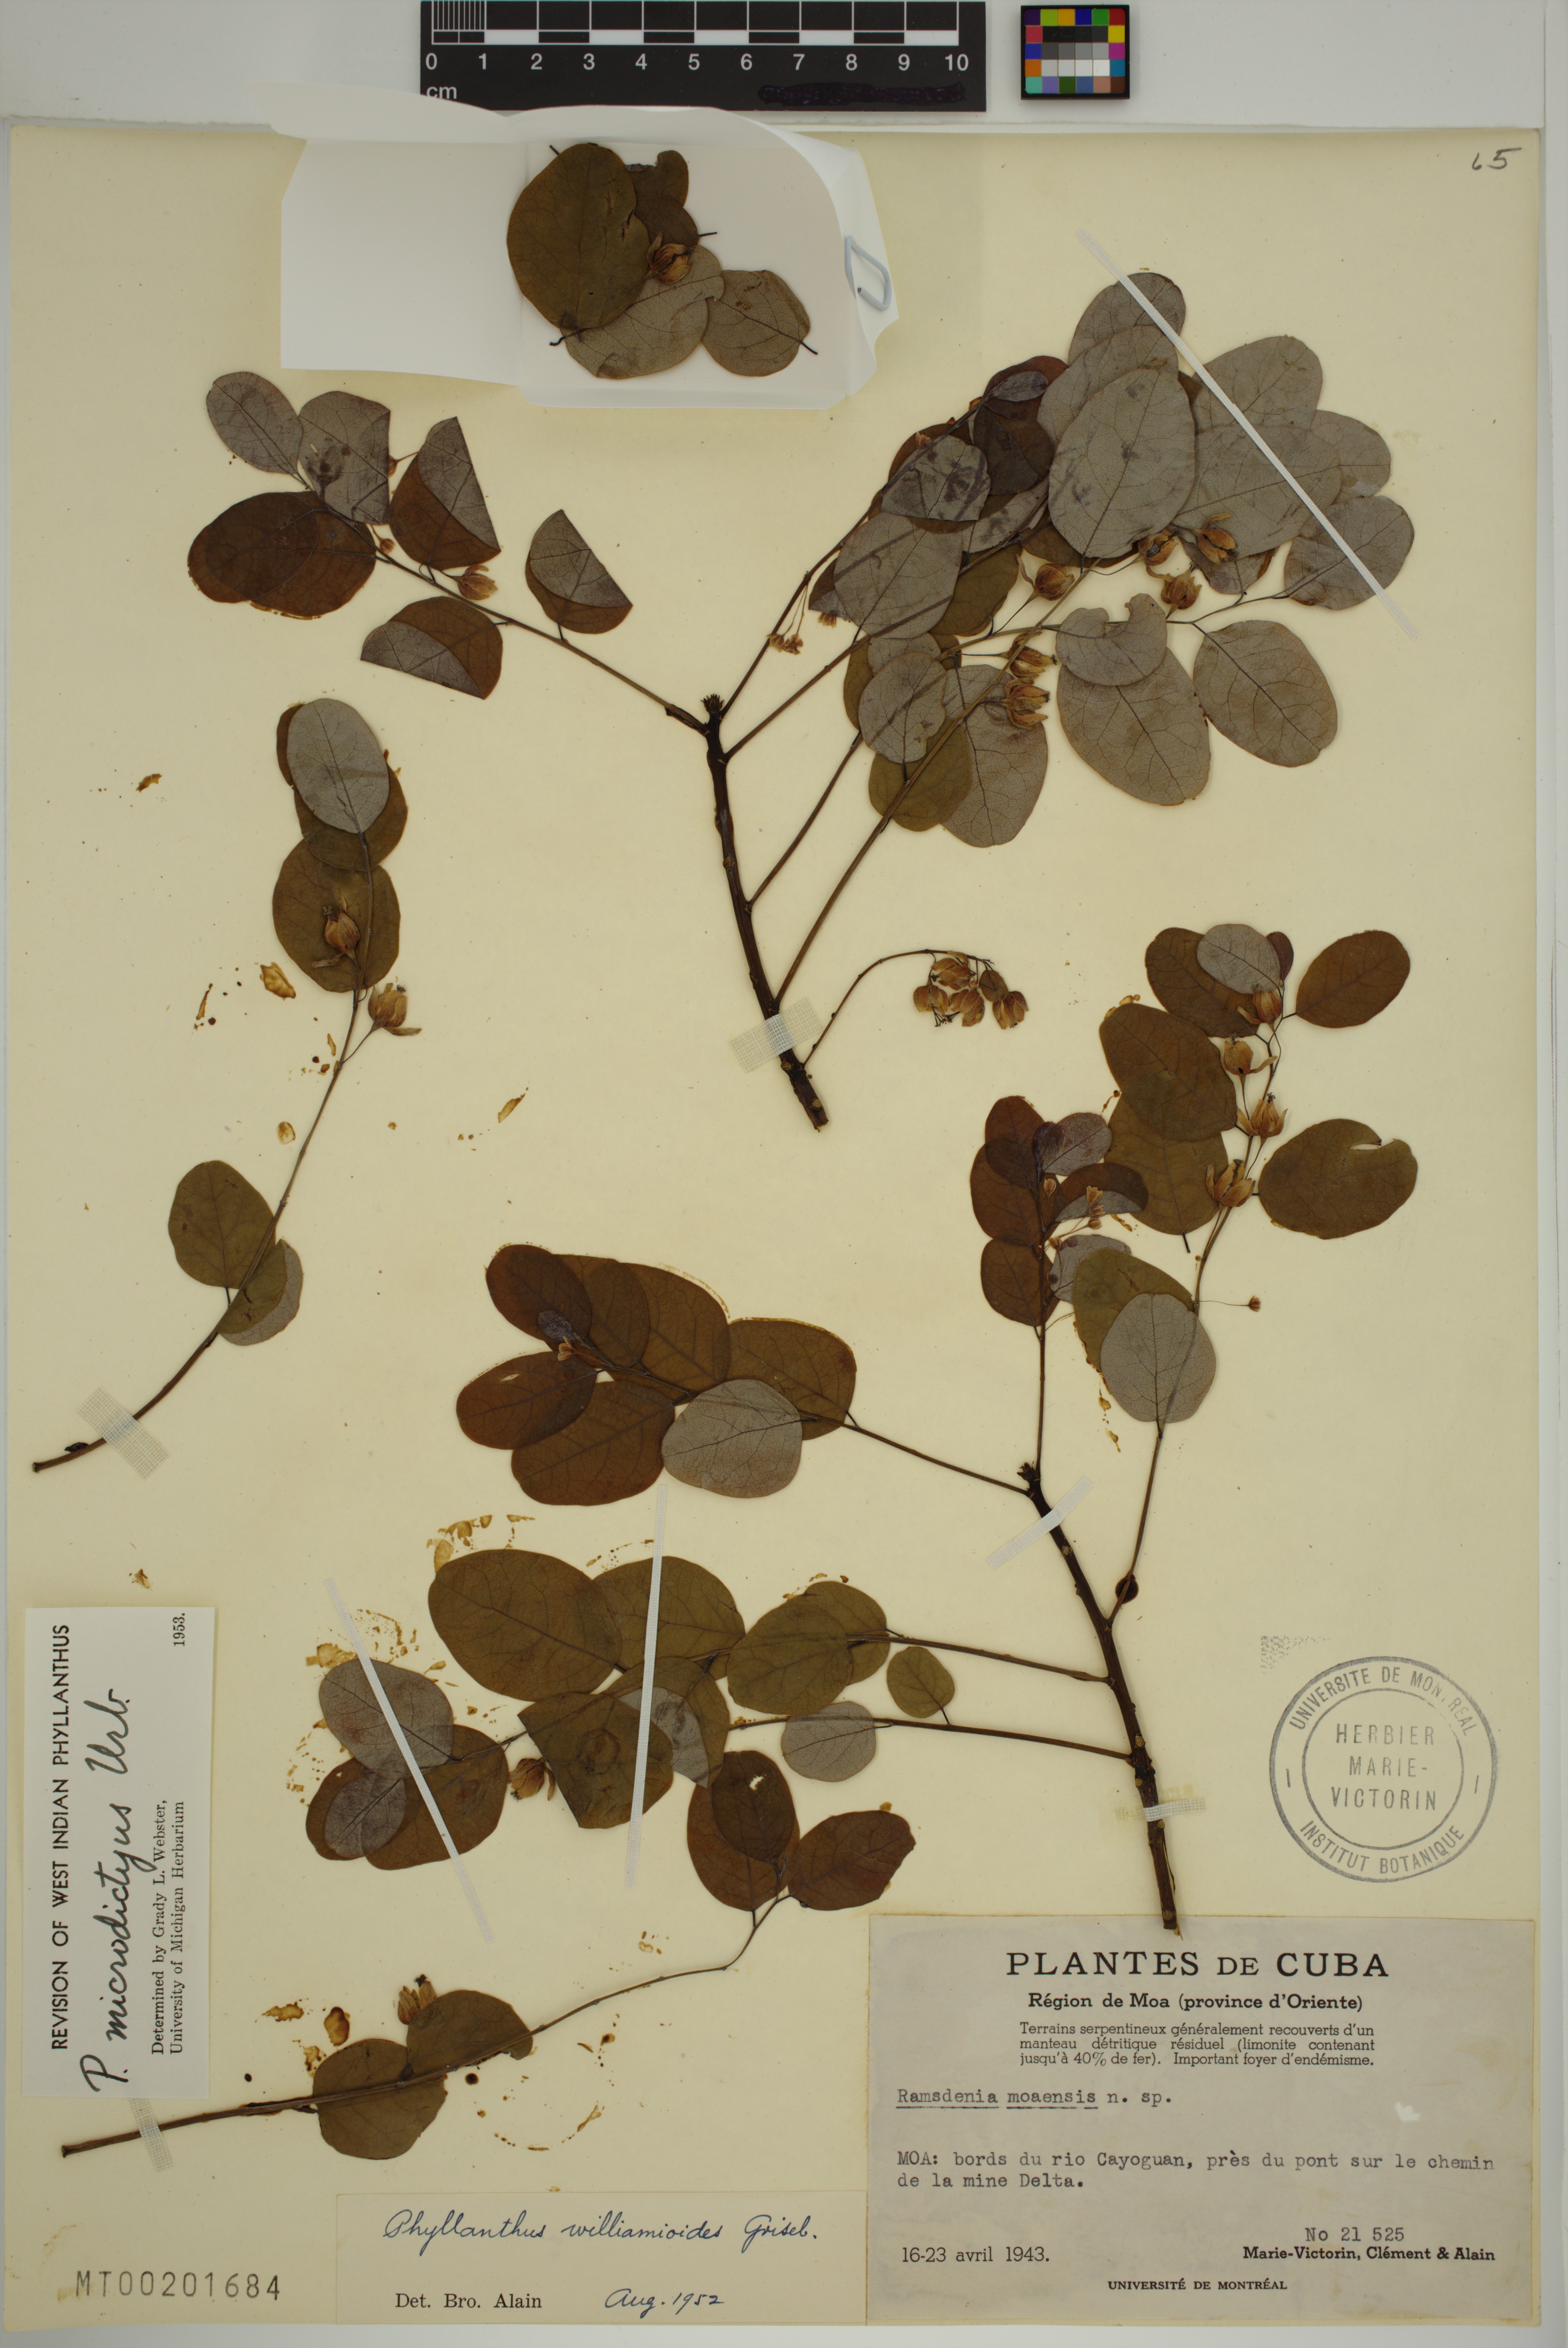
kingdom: Plantae
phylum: Tracheophyta
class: Magnoliopsida
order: Malpighiales
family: Phyllanthaceae
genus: Phyllanthus
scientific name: Phyllanthus microdictyus
